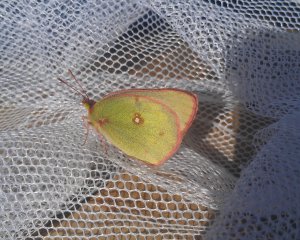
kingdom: Animalia
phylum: Arthropoda
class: Insecta
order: Lepidoptera
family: Pieridae
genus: Colias
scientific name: Colias philodice
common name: Clouded Sulphur
